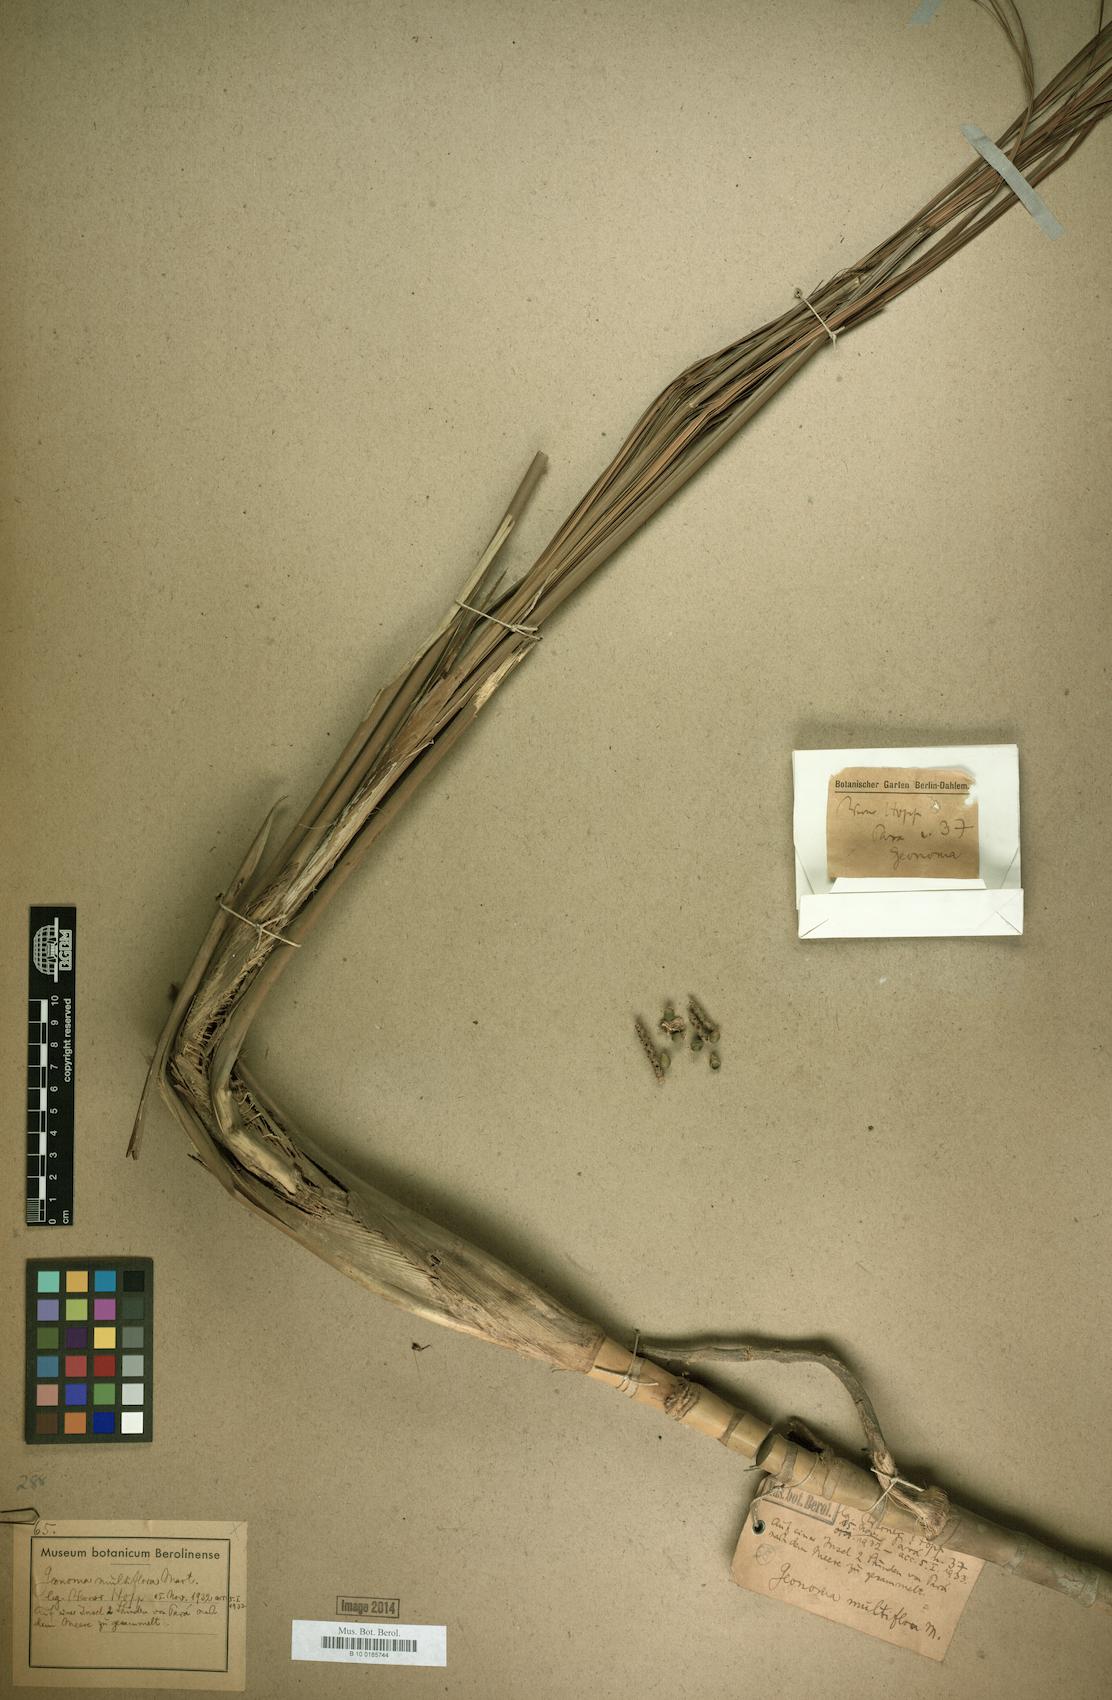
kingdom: Plantae
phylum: Tracheophyta
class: Liliopsida
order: Arecales
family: Arecaceae
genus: Geonoma
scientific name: Geonoma maxima
